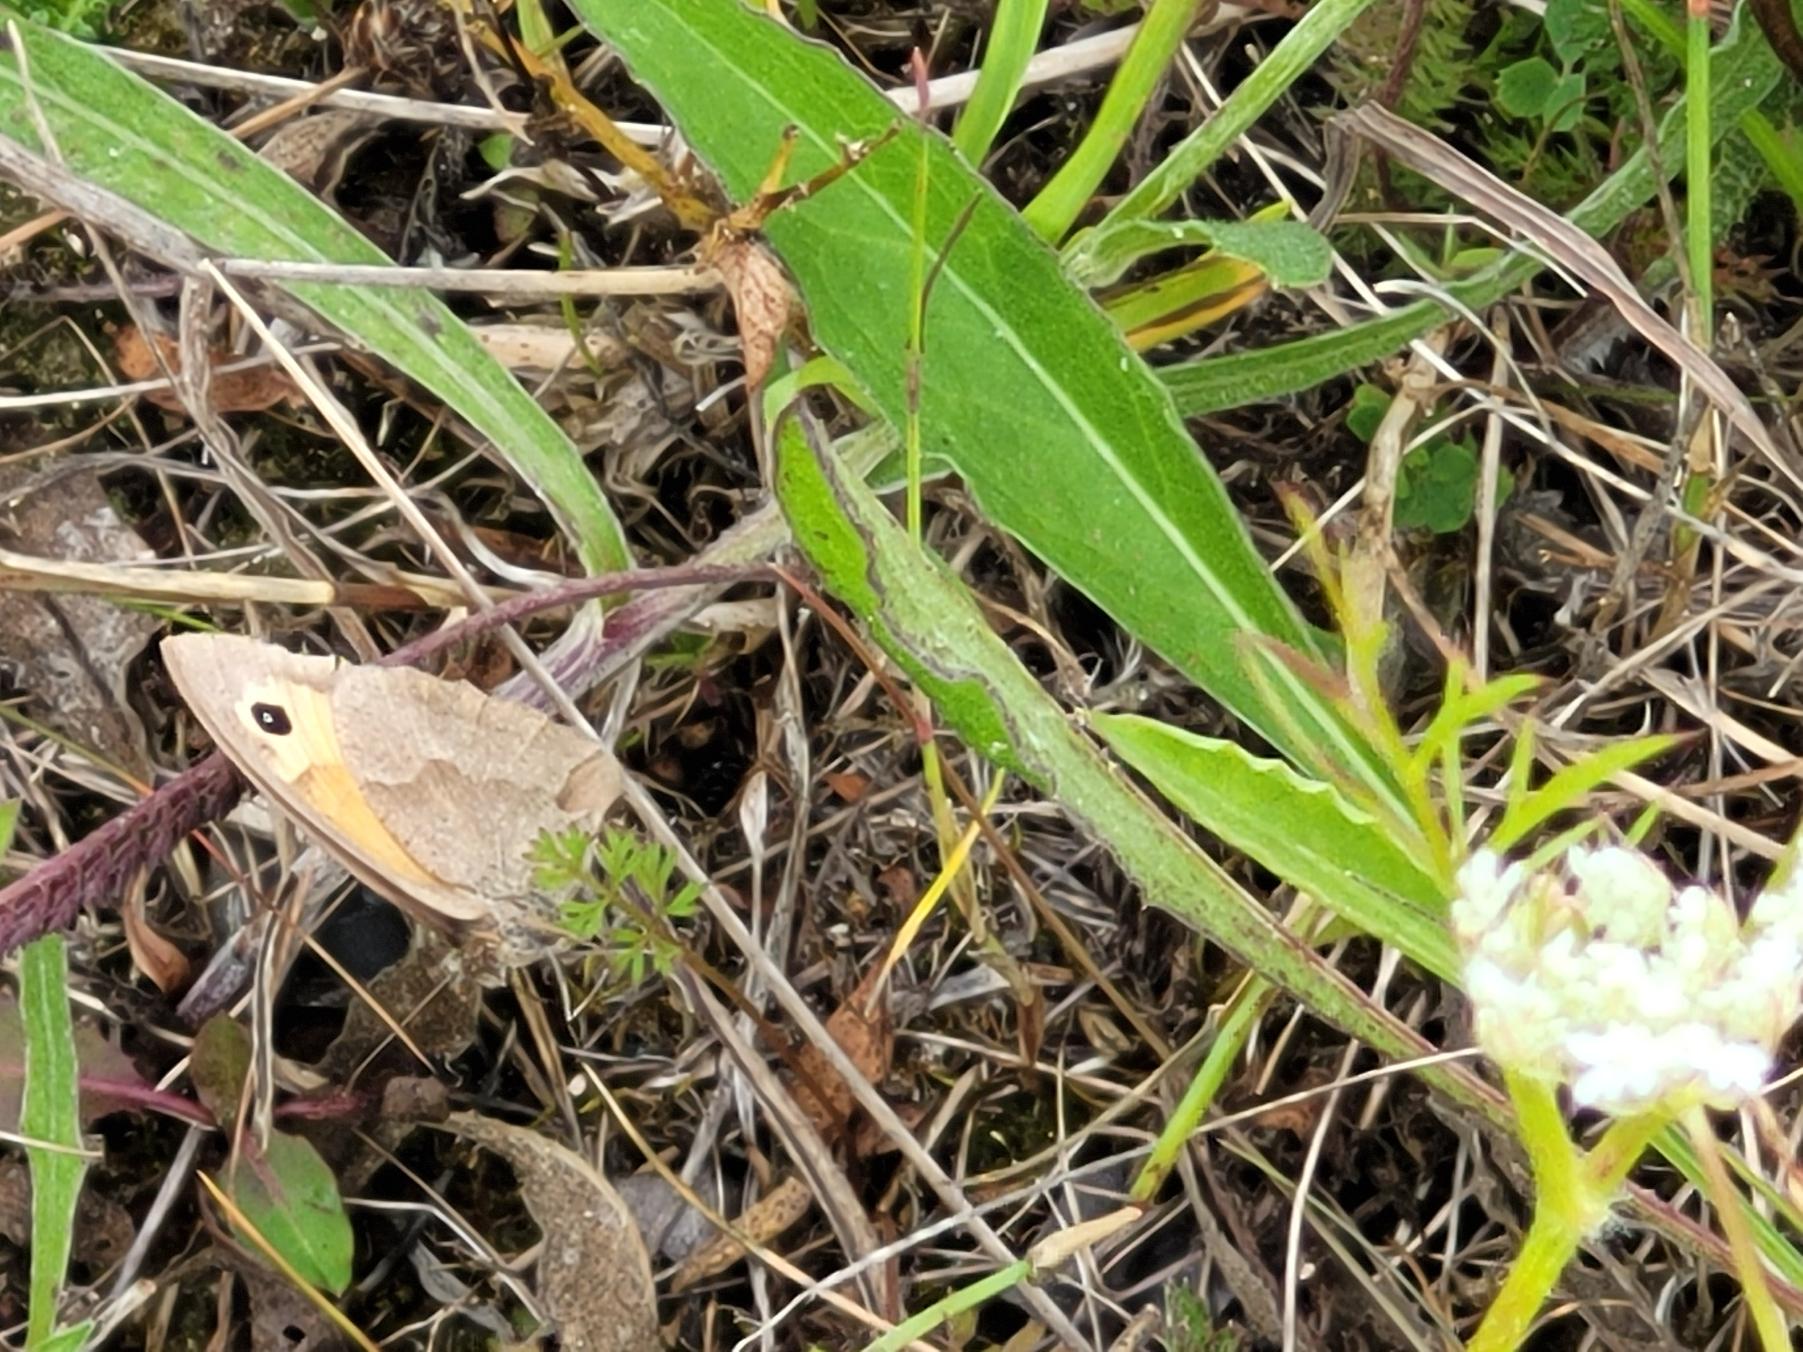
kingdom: Animalia
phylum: Arthropoda
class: Insecta
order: Lepidoptera
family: Nymphalidae
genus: Maniola
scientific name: Maniola jurtina
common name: Græsrandøje
